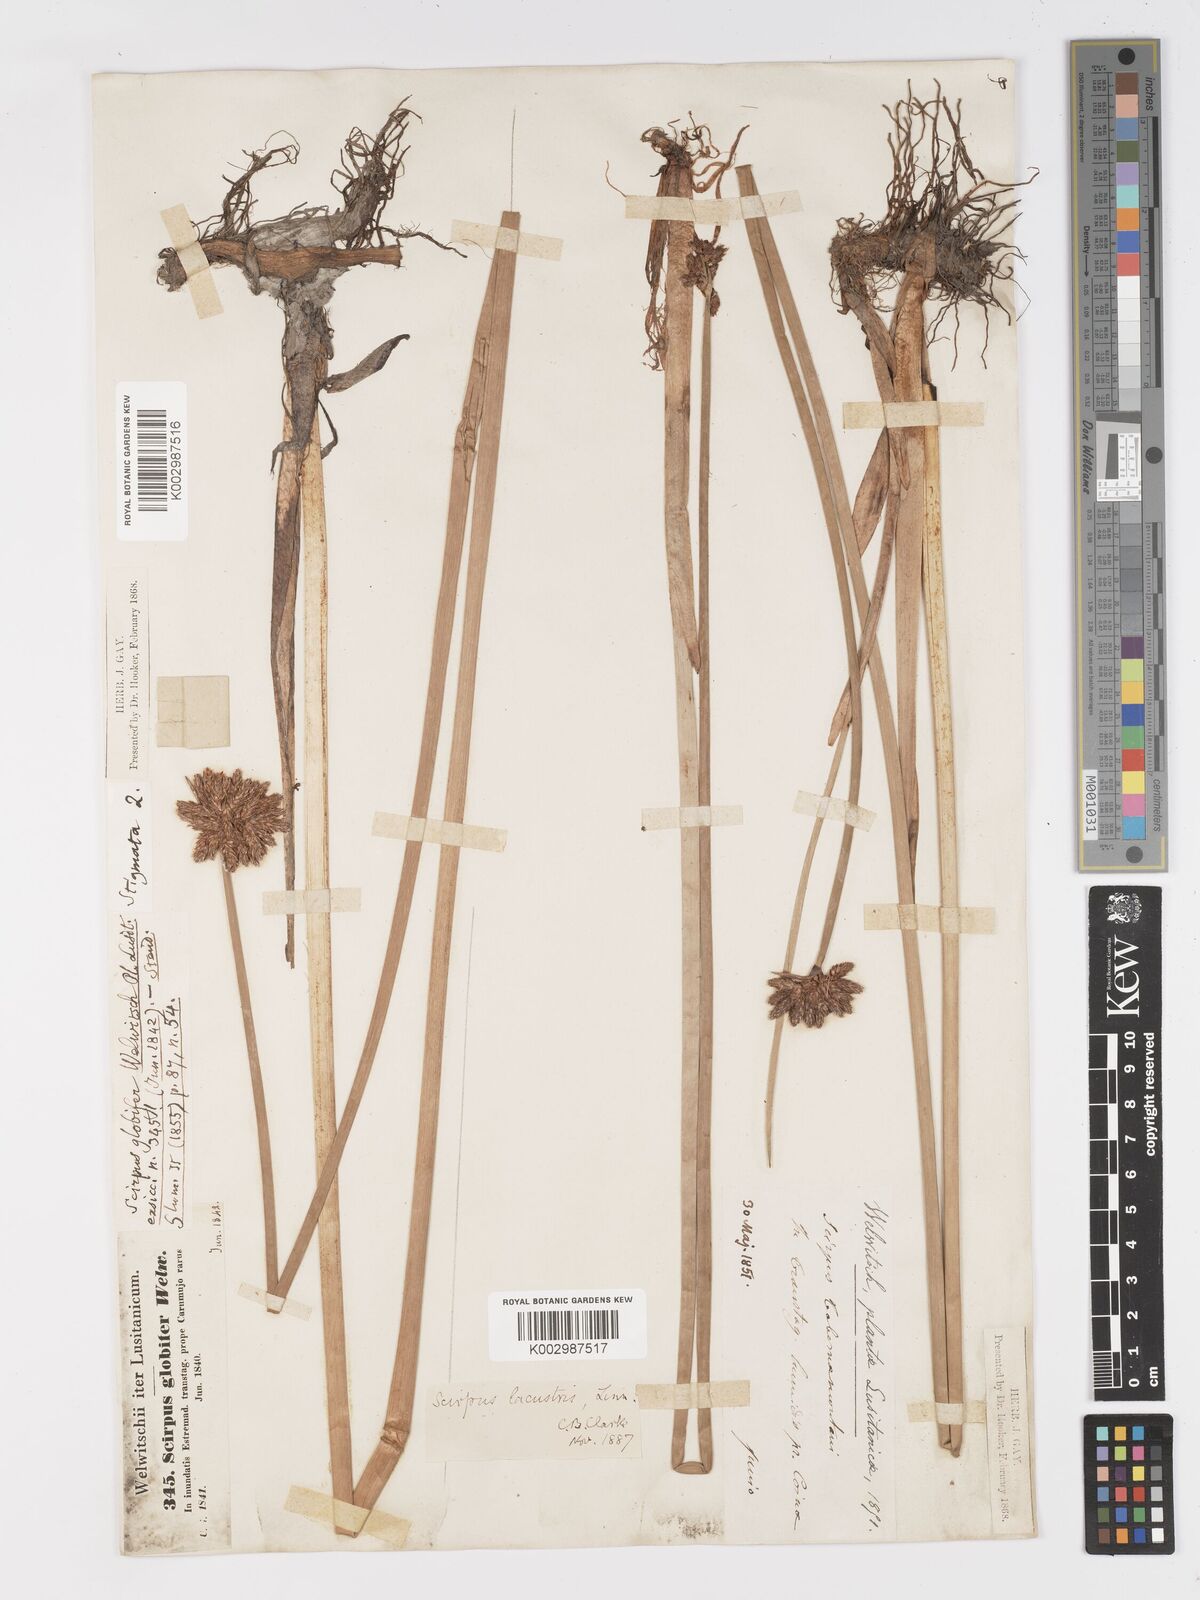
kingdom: Plantae
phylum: Tracheophyta
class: Liliopsida
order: Poales
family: Cyperaceae
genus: Schoenoplectus
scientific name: Schoenoplectus lacustris
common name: Common club-rush
